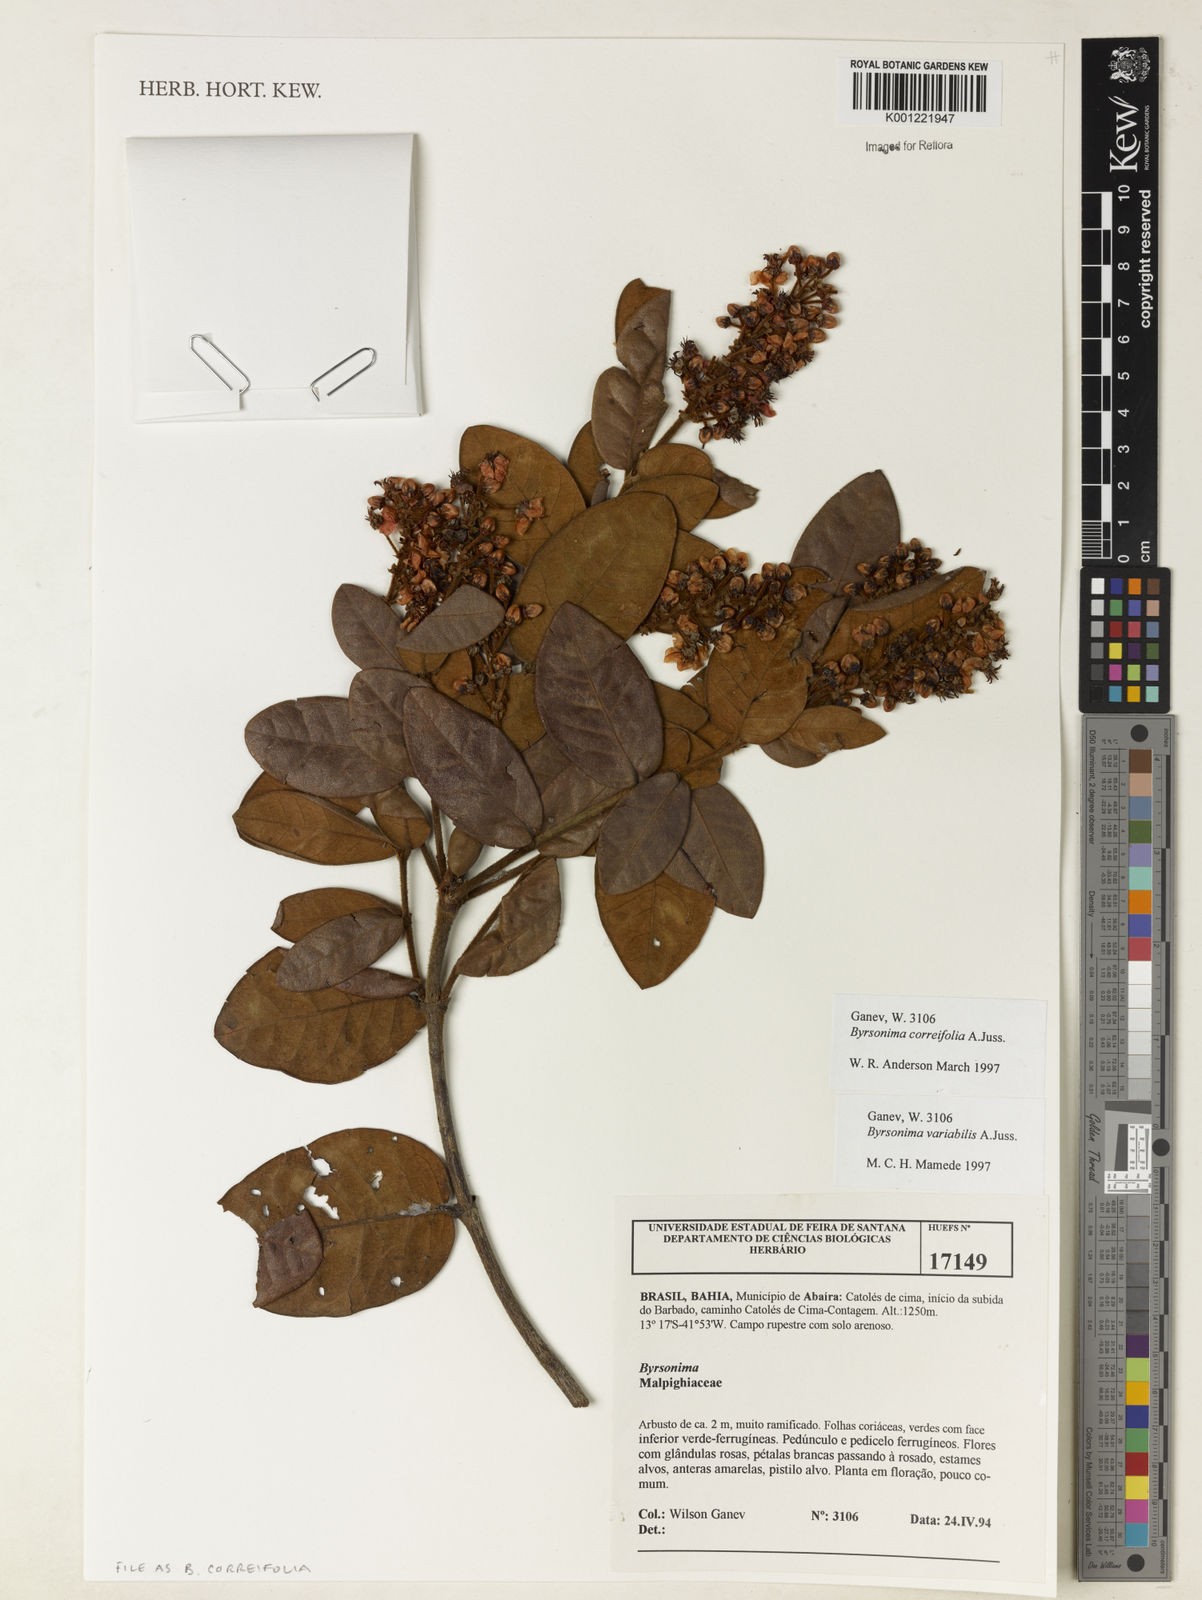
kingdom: Plantae
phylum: Tracheophyta
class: Magnoliopsida
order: Malpighiales
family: Malpighiaceae
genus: Byrsonima
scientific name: Byrsonima correifolia
